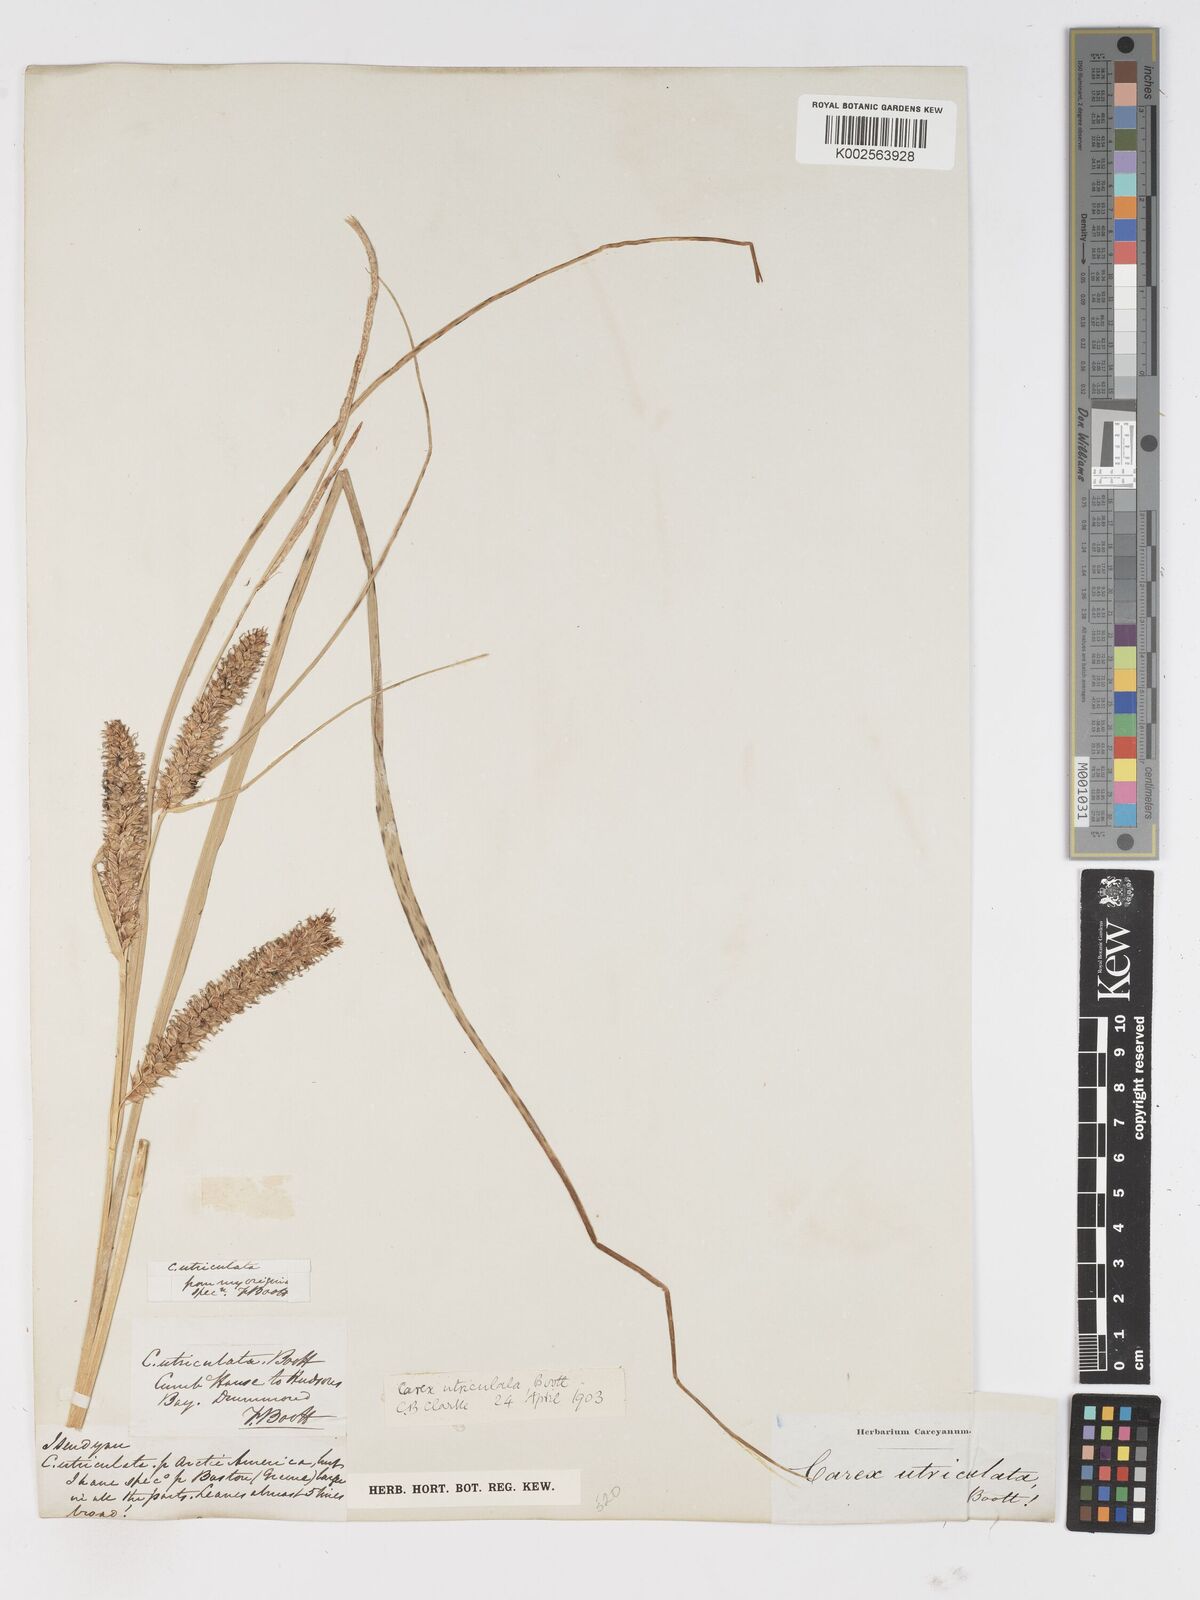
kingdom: Plantae
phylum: Tracheophyta
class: Liliopsida
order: Poales
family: Cyperaceae
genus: Carex
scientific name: Carex rostrata
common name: Bottle sedge
